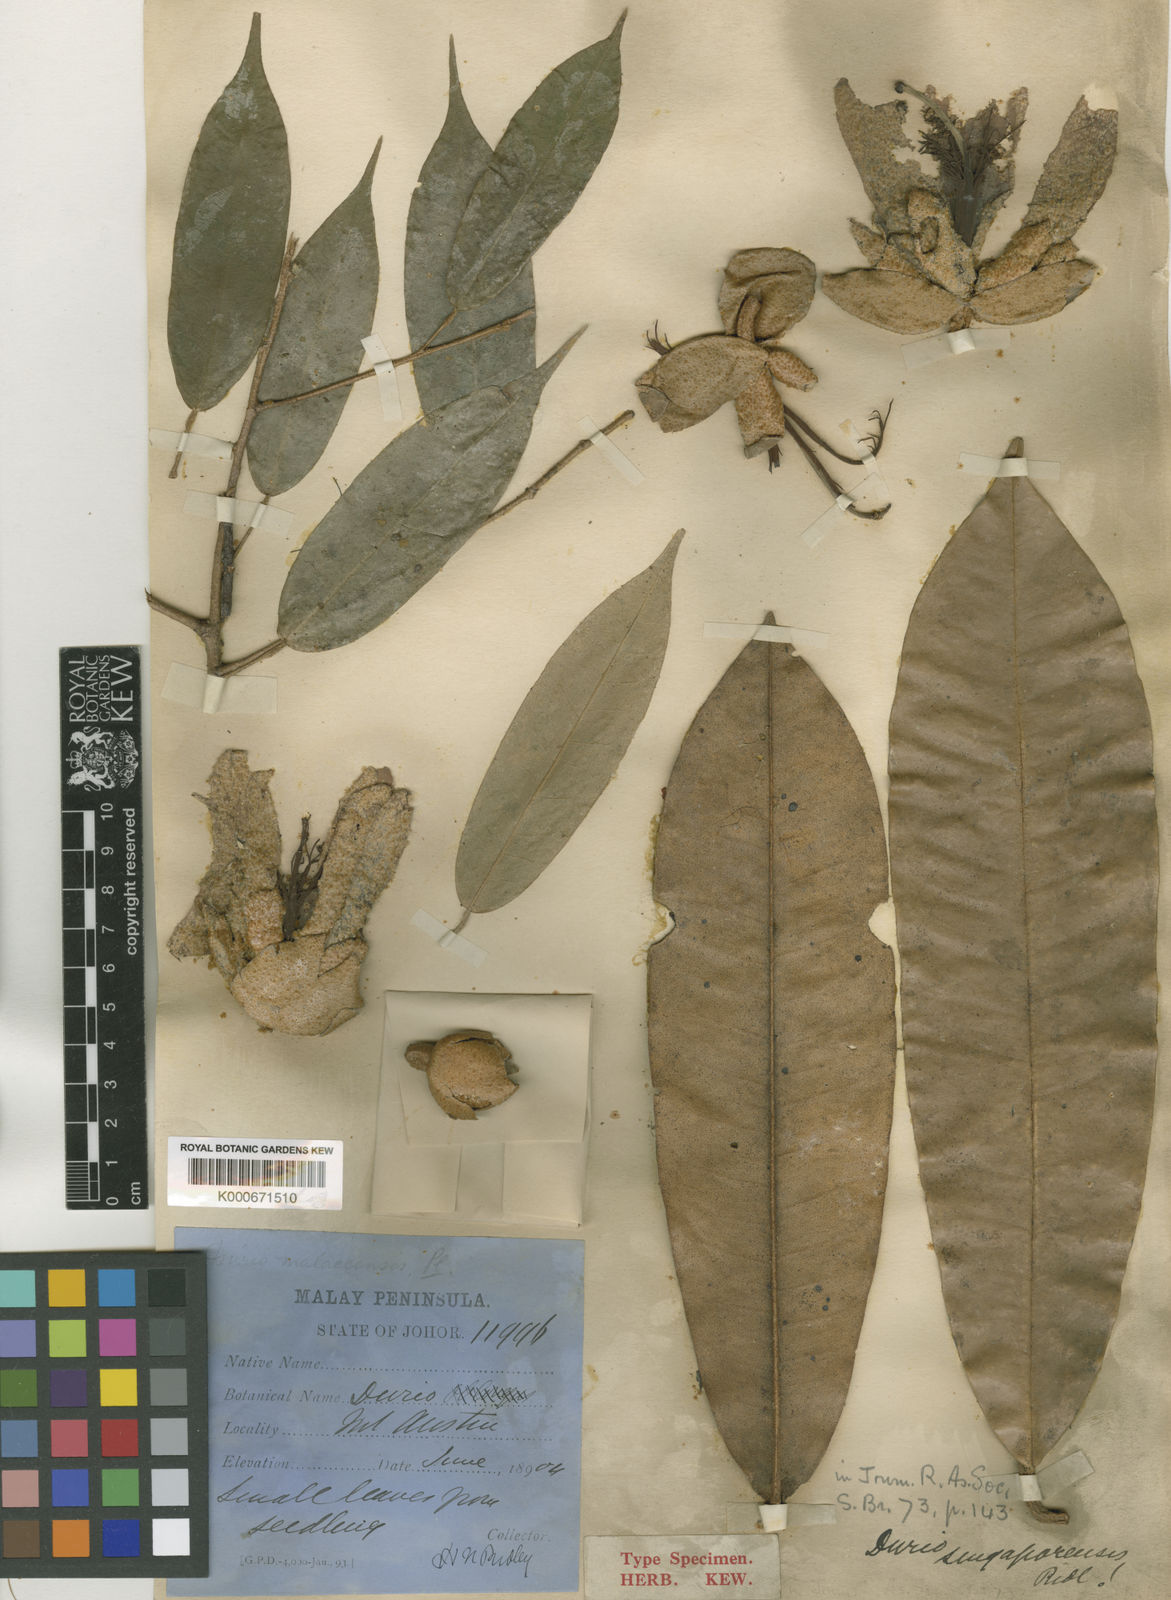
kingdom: Plantae
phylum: Tracheophyta
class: Magnoliopsida
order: Malvales
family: Malvaceae
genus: Durio
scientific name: Durio singaporensis
